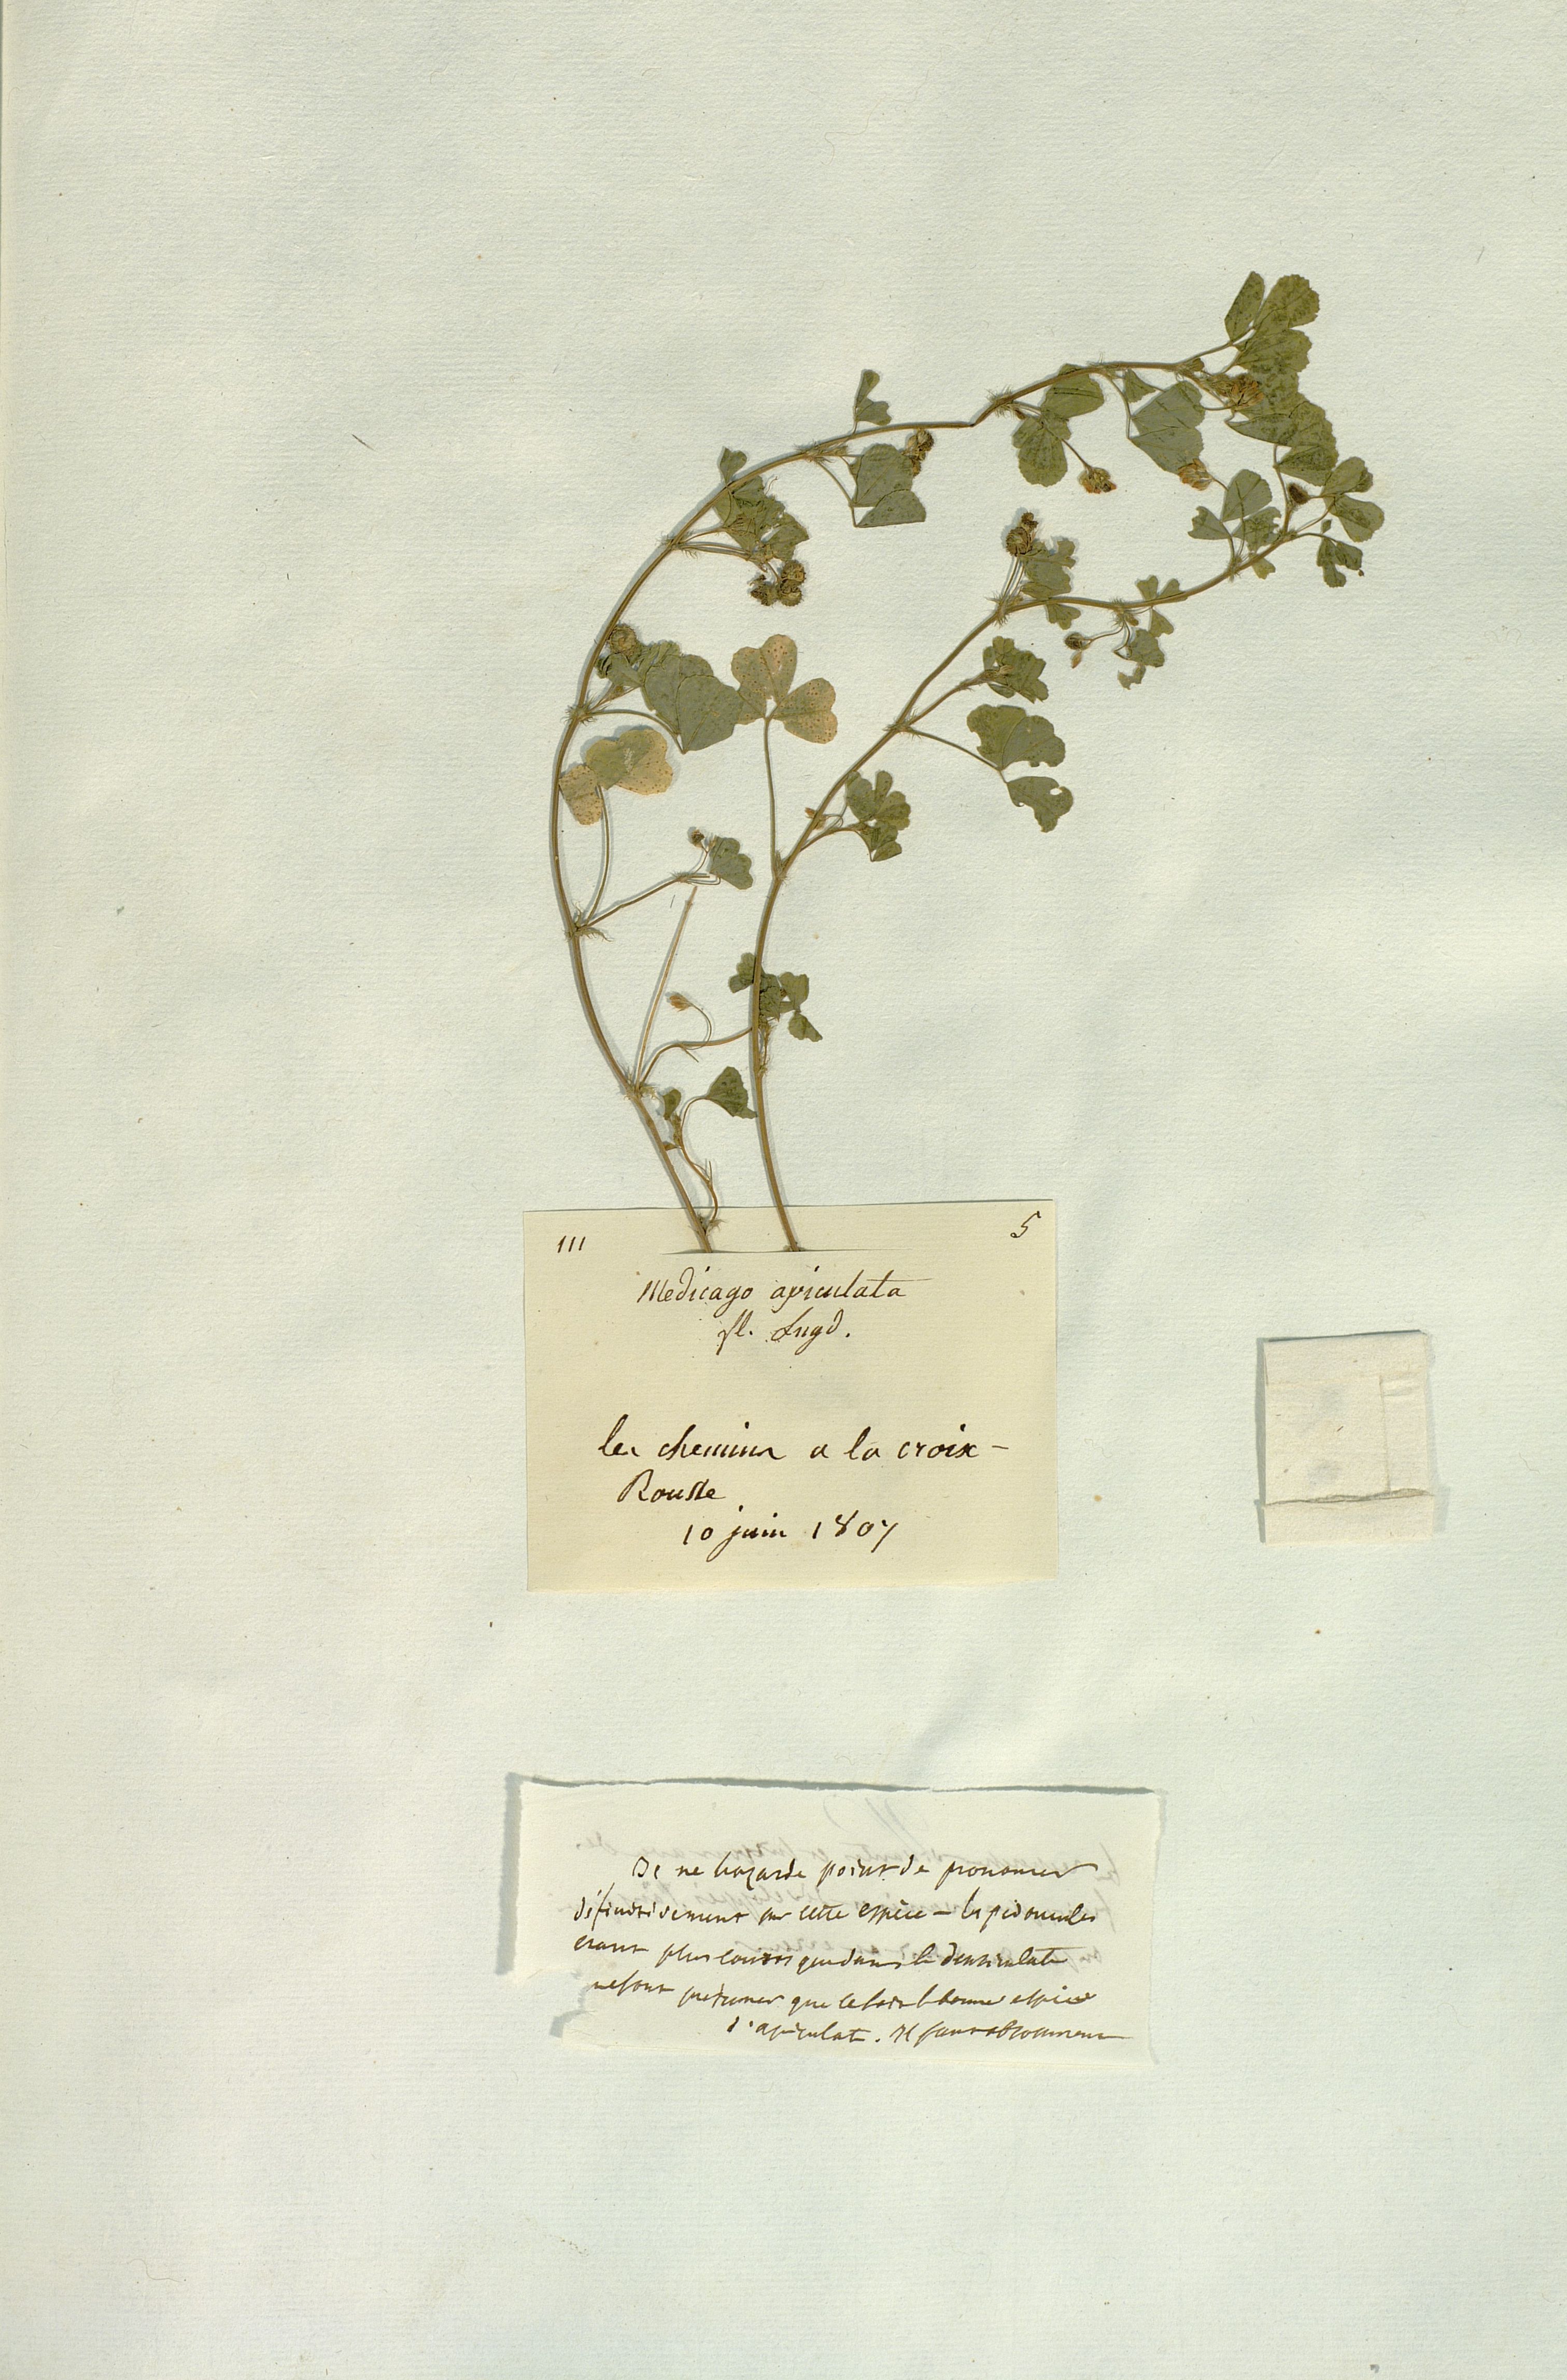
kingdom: Plantae
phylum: Tracheophyta
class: Magnoliopsida
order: Fabales
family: Fabaceae
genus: Medicago
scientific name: Medicago
